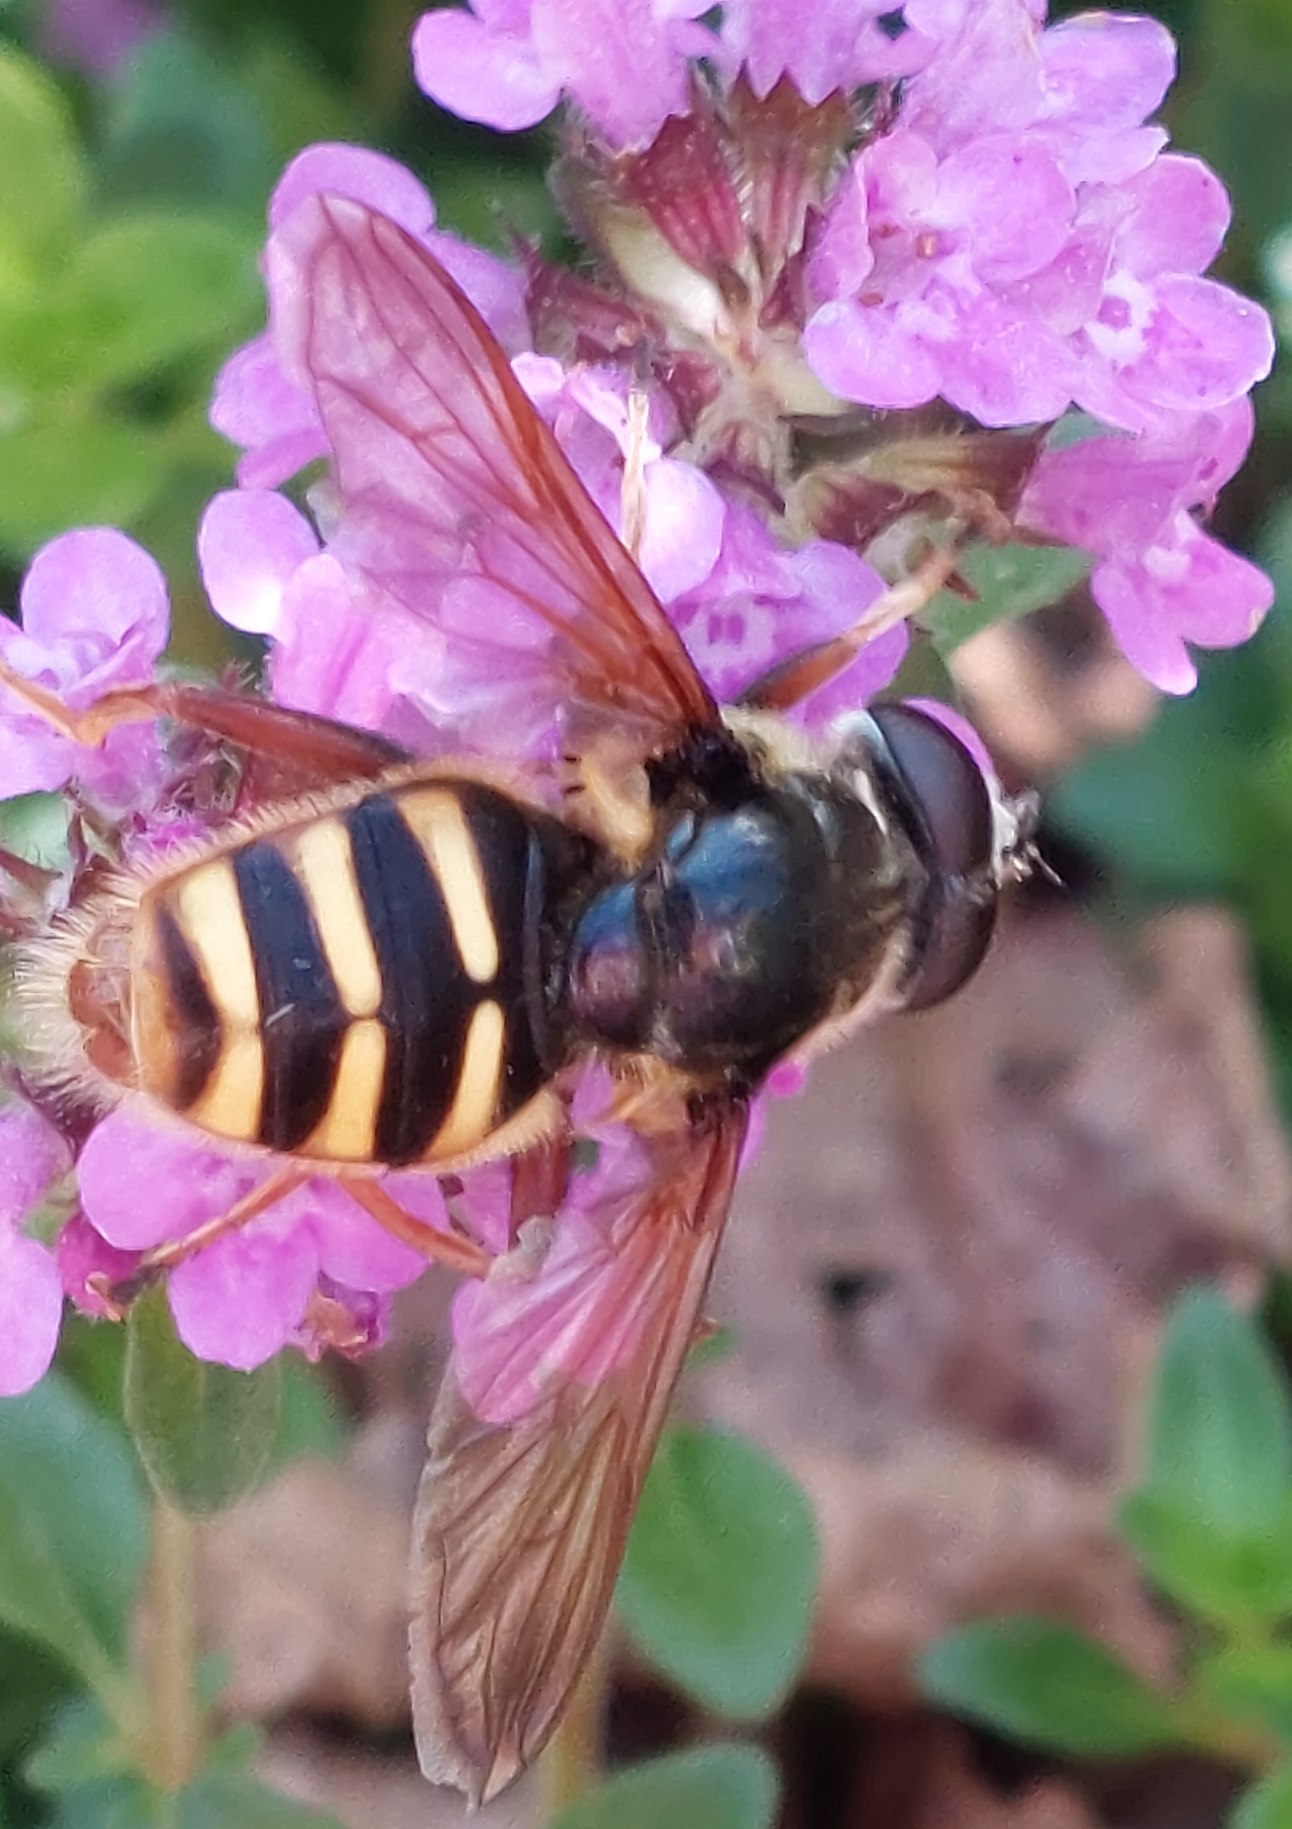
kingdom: Animalia
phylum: Arthropoda
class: Insecta
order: Diptera
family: Syrphidae
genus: Sericomyia
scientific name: Sericomyia silentis
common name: Tørve-silkesvirreflue
